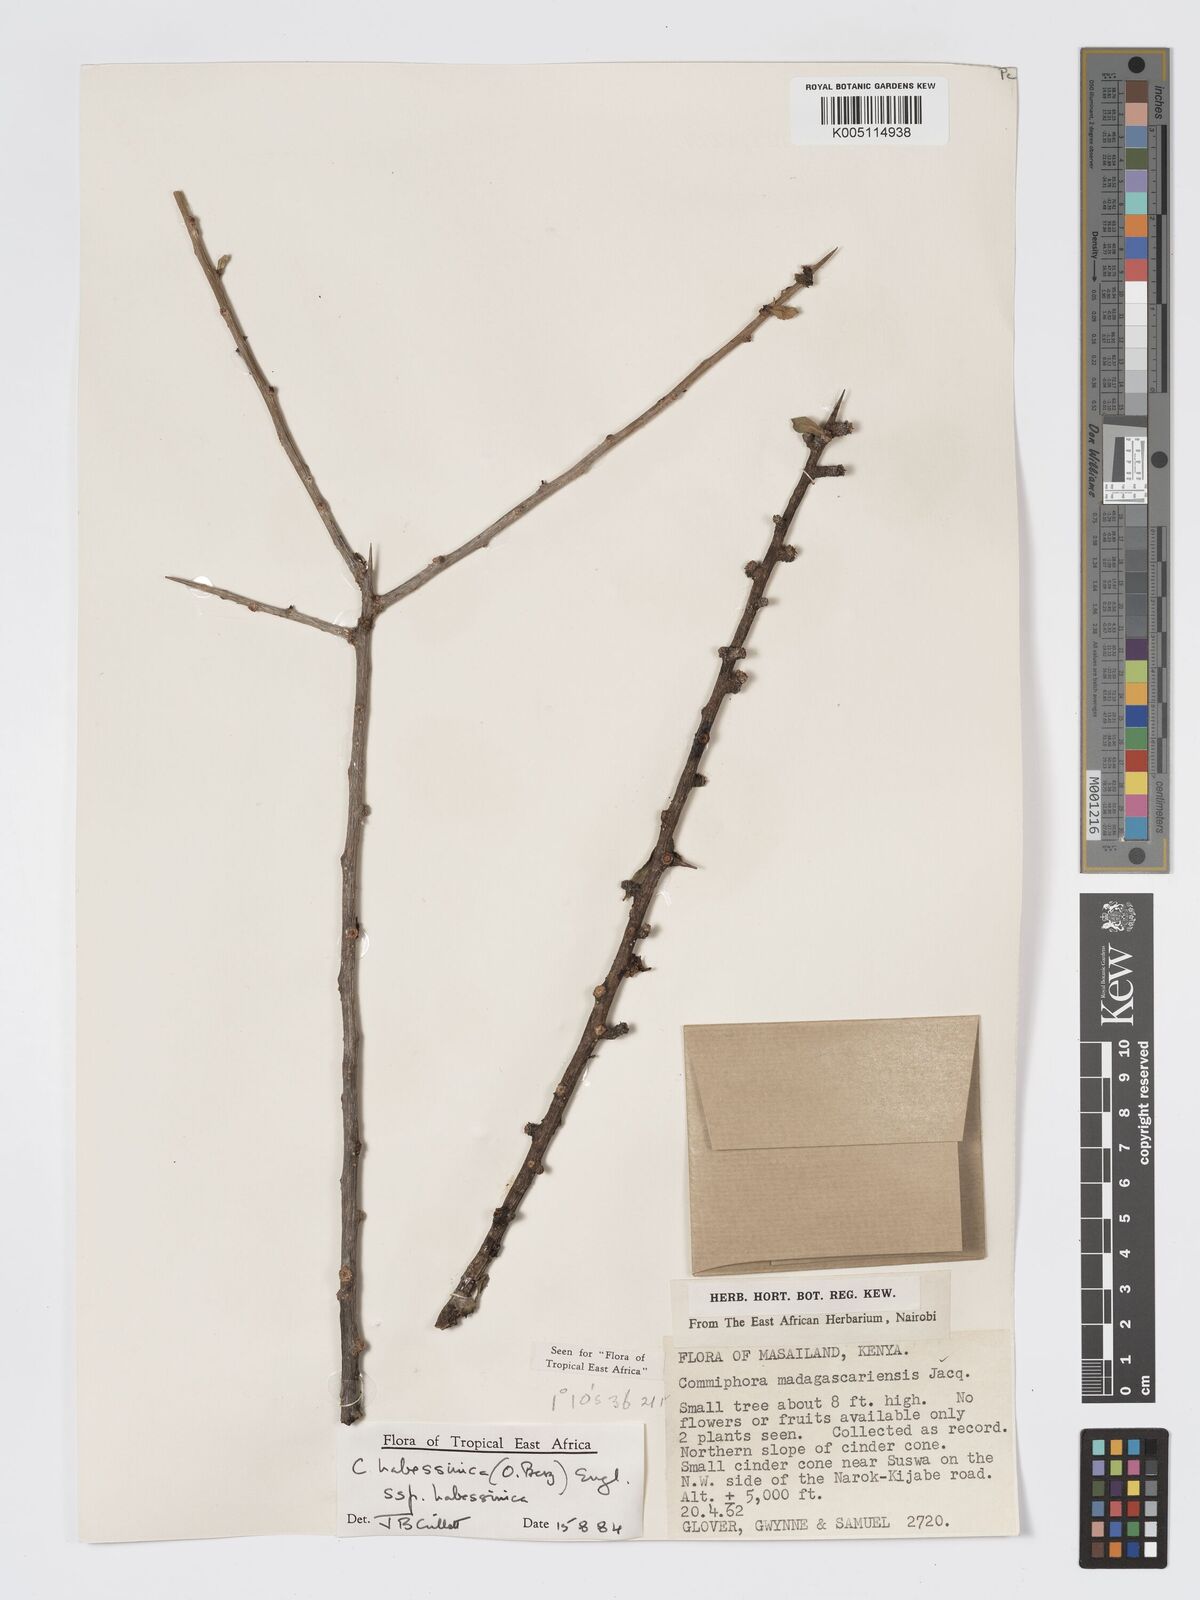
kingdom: Plantae
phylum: Tracheophyta
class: Magnoliopsida
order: Sapindales
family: Burseraceae
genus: Commiphora
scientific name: Commiphora kua
